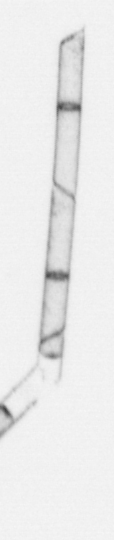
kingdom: Chromista
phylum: Ochrophyta
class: Bacillariophyceae
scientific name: Bacillariophyceae
